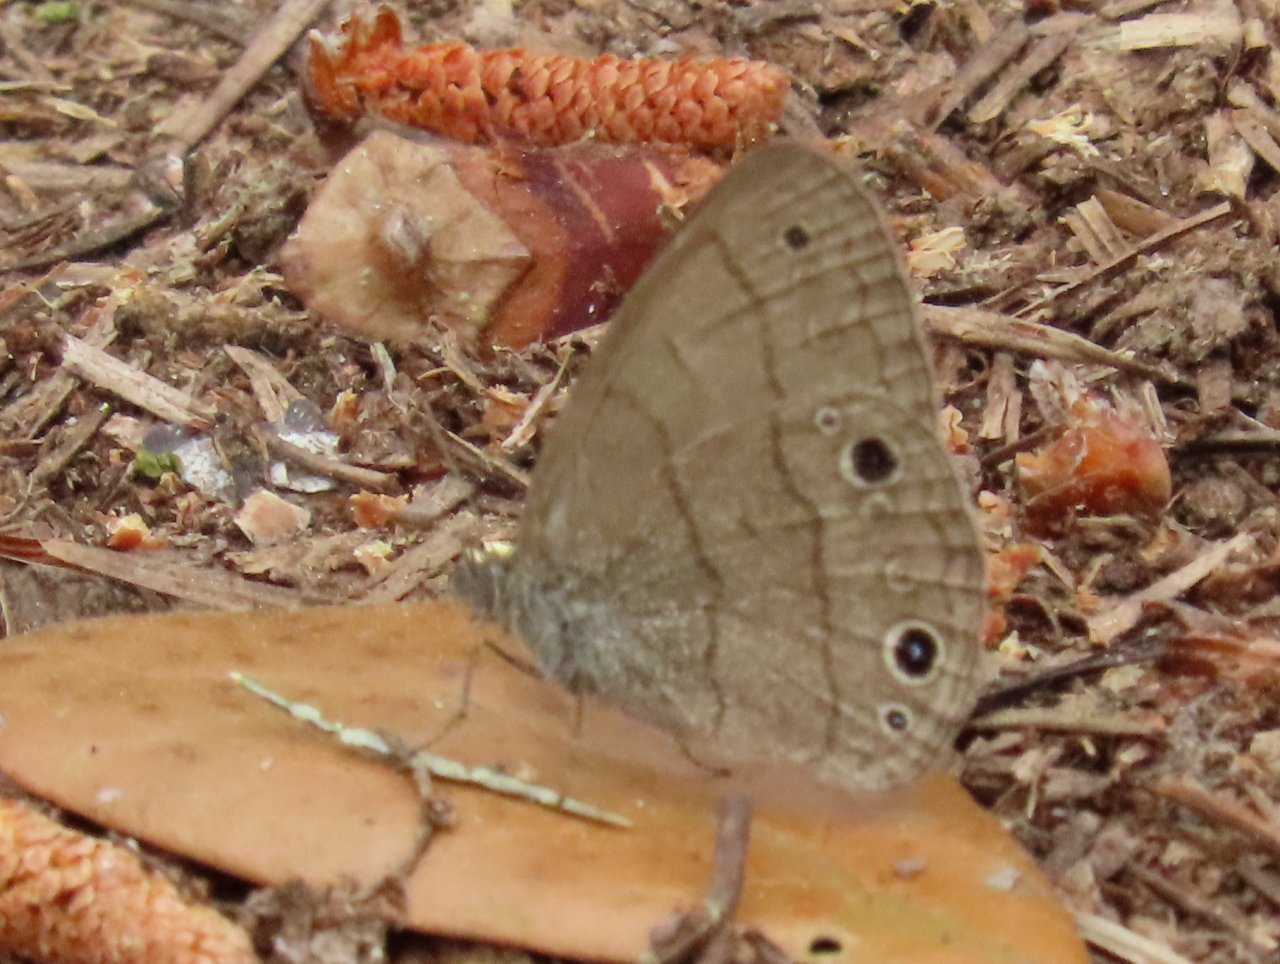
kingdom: Animalia
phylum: Arthropoda
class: Insecta
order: Lepidoptera
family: Nymphalidae
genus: Hermeuptychia
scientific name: Hermeuptychia hermes
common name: Carolina Satyr
